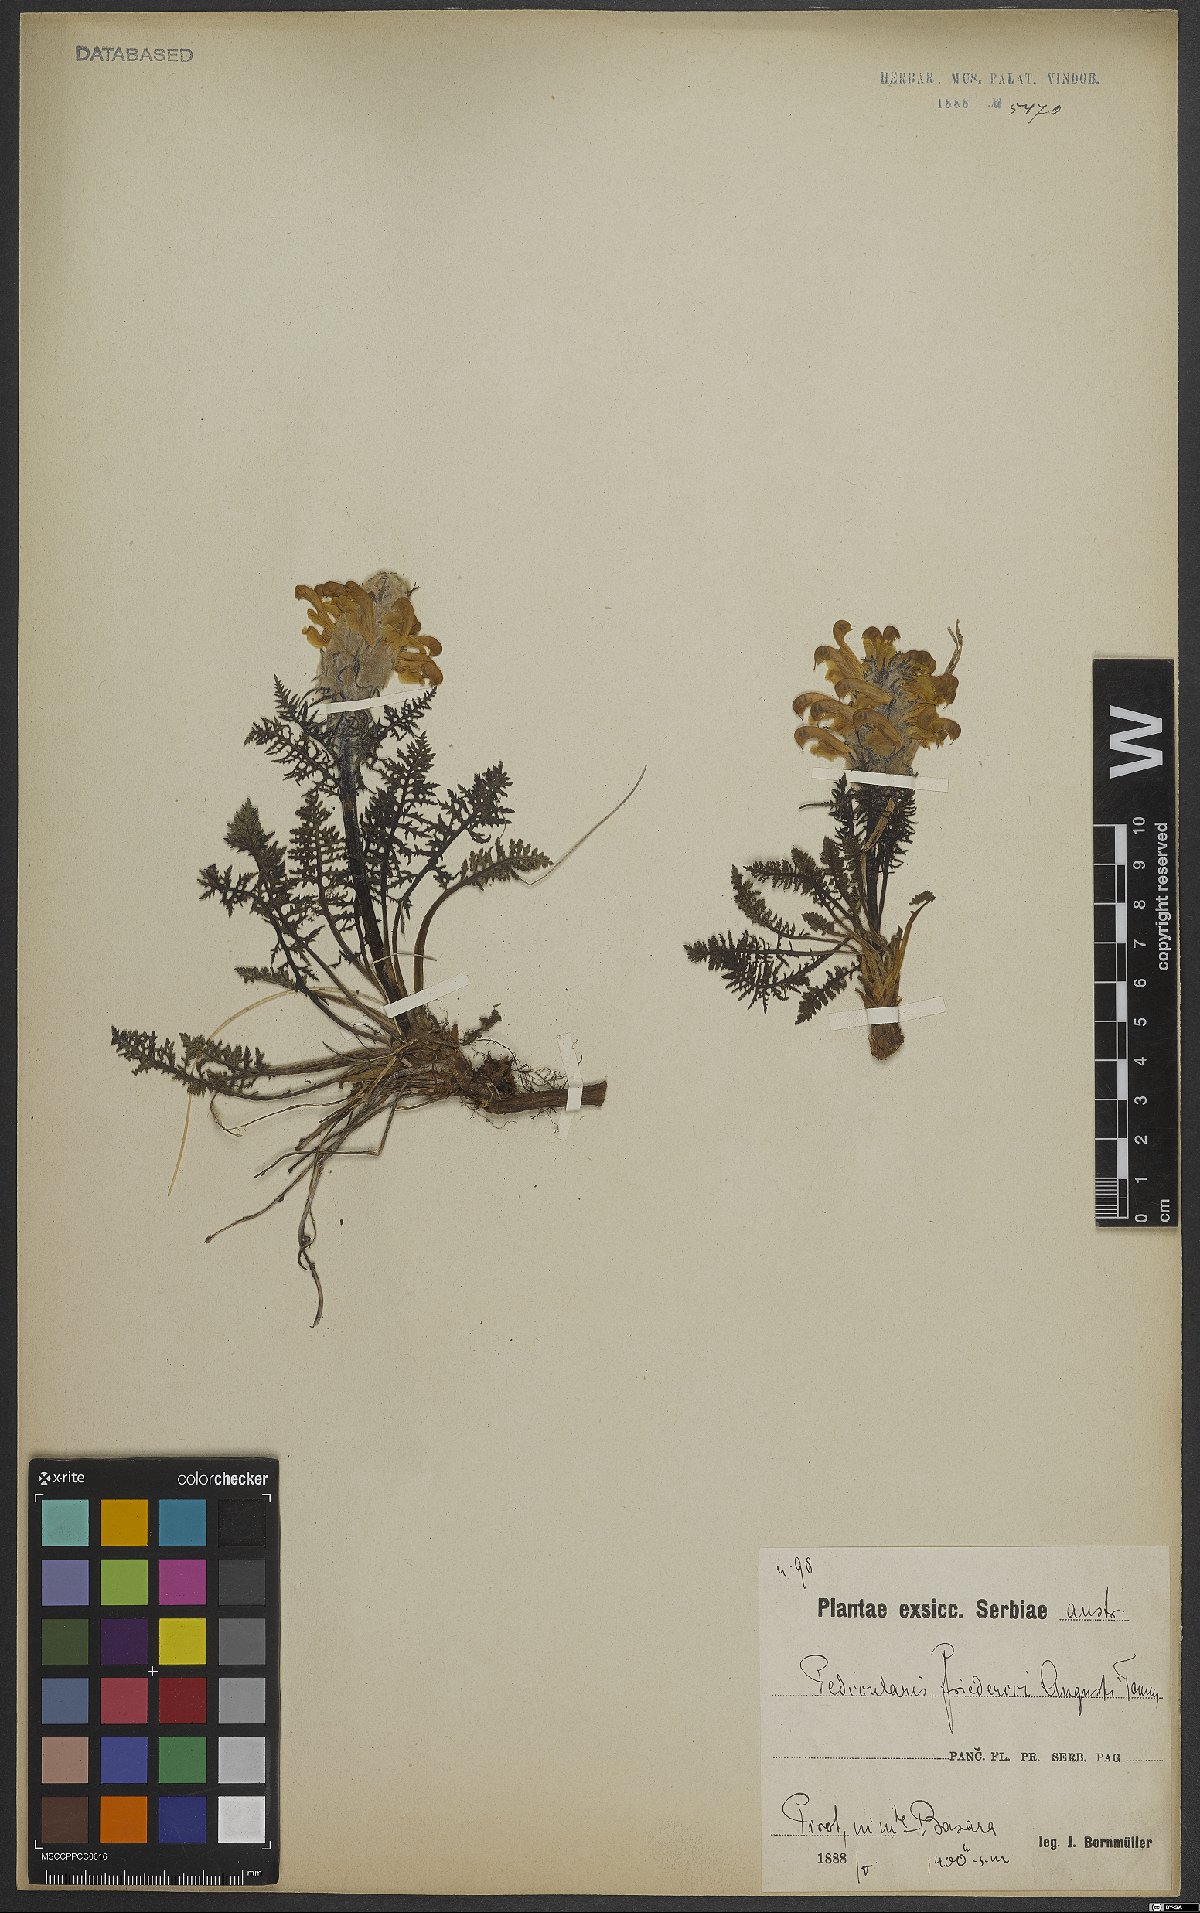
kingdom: Plantae
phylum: Tracheophyta
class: Magnoliopsida
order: Lamiales
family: Orobanchaceae
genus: Pedicularis
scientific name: Pedicularis friderici-augusti
